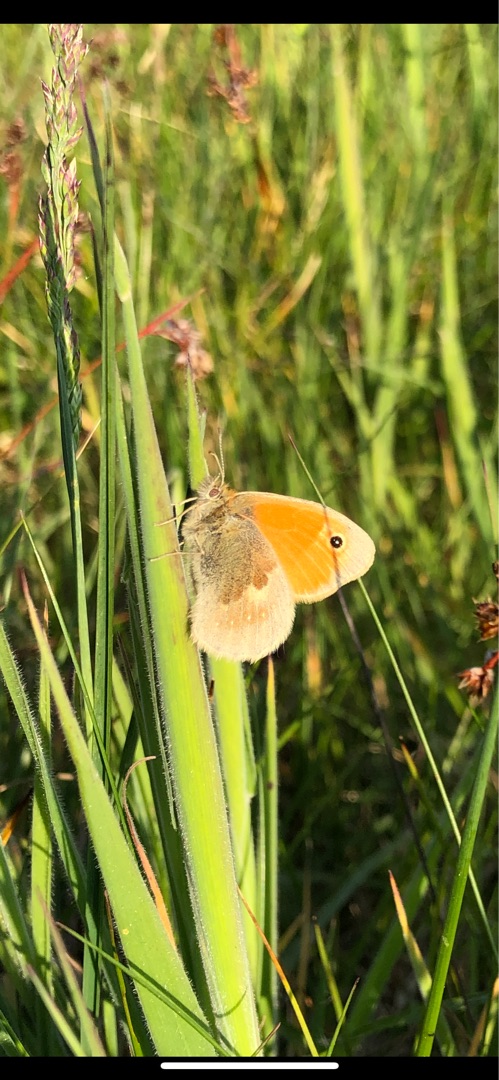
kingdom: Animalia
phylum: Arthropoda
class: Insecta
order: Lepidoptera
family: Nymphalidae
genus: Coenonympha
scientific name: Coenonympha pamphilus
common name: Okkergul randøje
